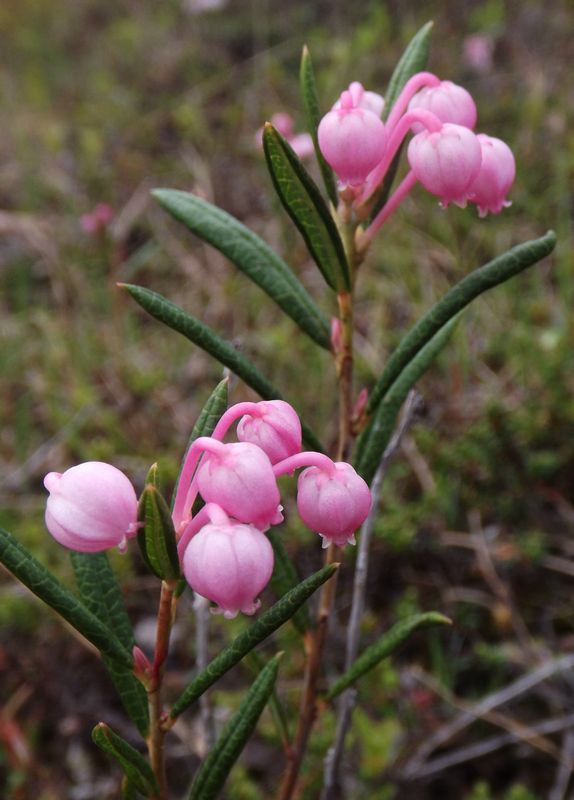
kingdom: Plantae
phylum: Tracheophyta
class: Magnoliopsida
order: Ericales
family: Ericaceae
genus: Andromeda
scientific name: Andromeda polifolia
